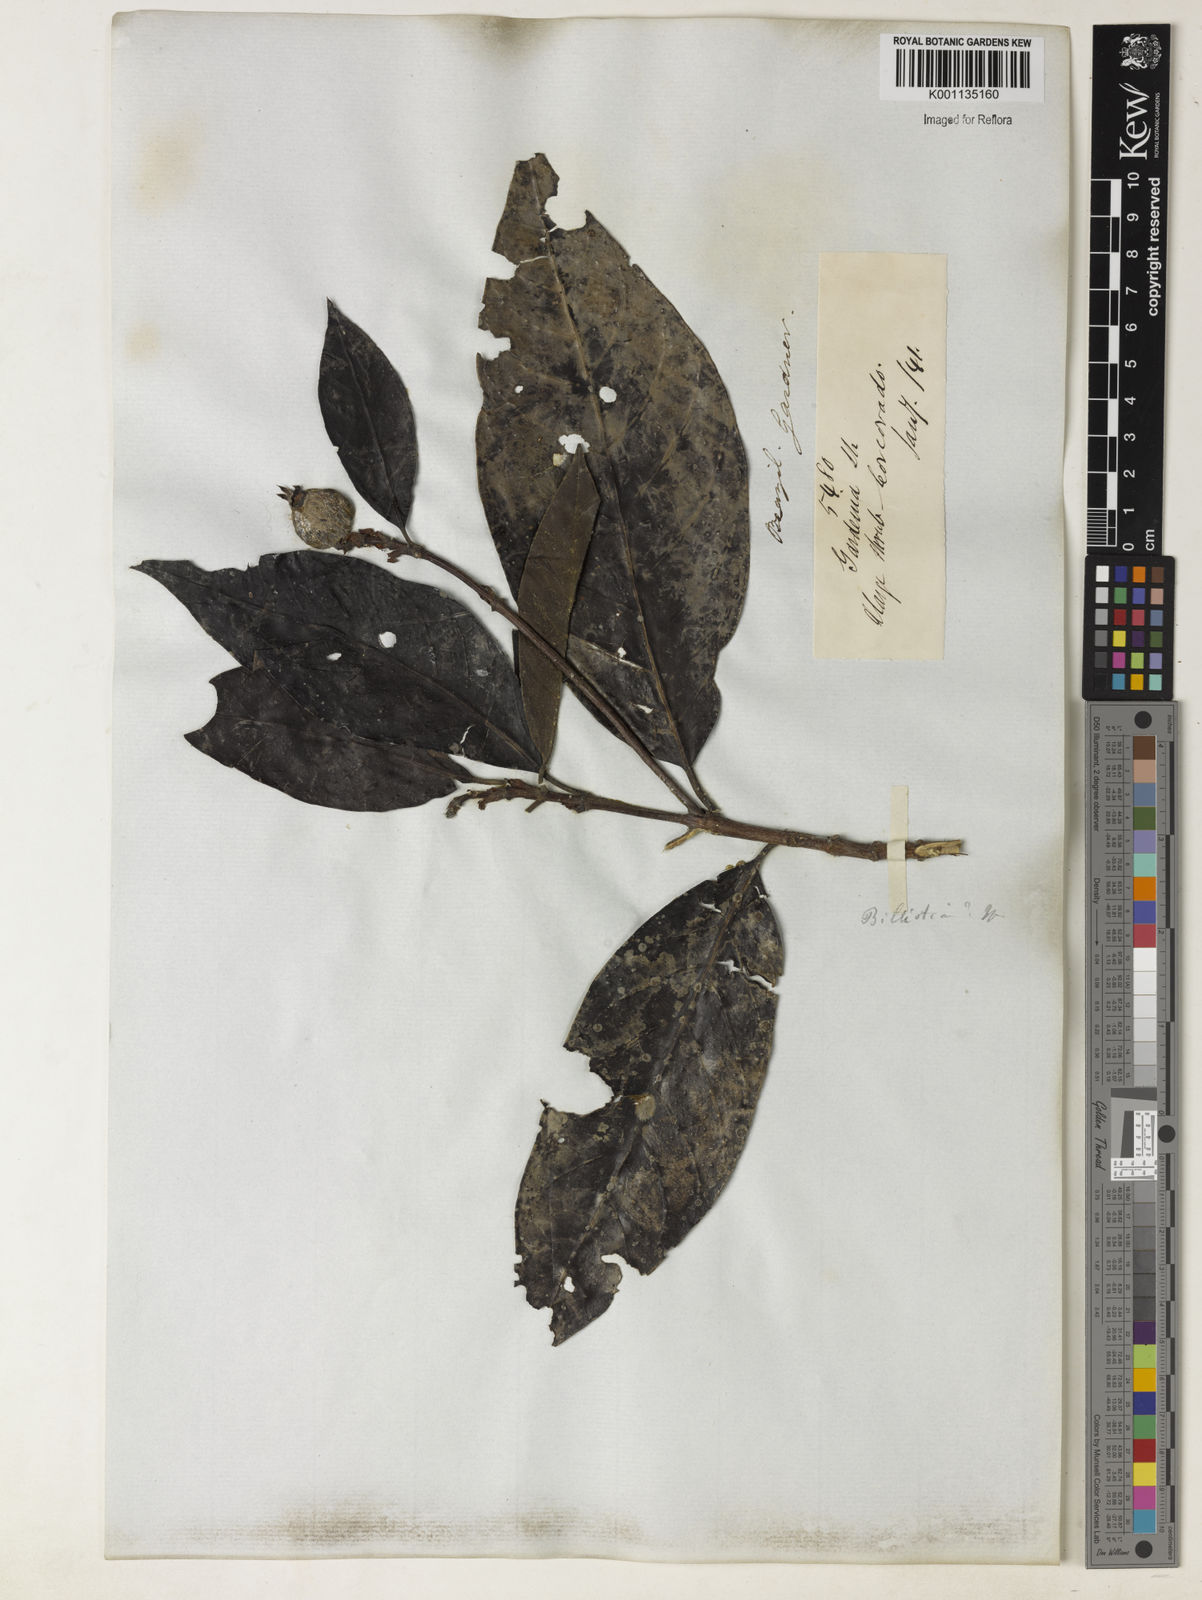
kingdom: Plantae
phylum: Tracheophyta
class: Magnoliopsida
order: Gentianales
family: Rubiaceae
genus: Melanopsidium
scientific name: Melanopsidium nigrum
